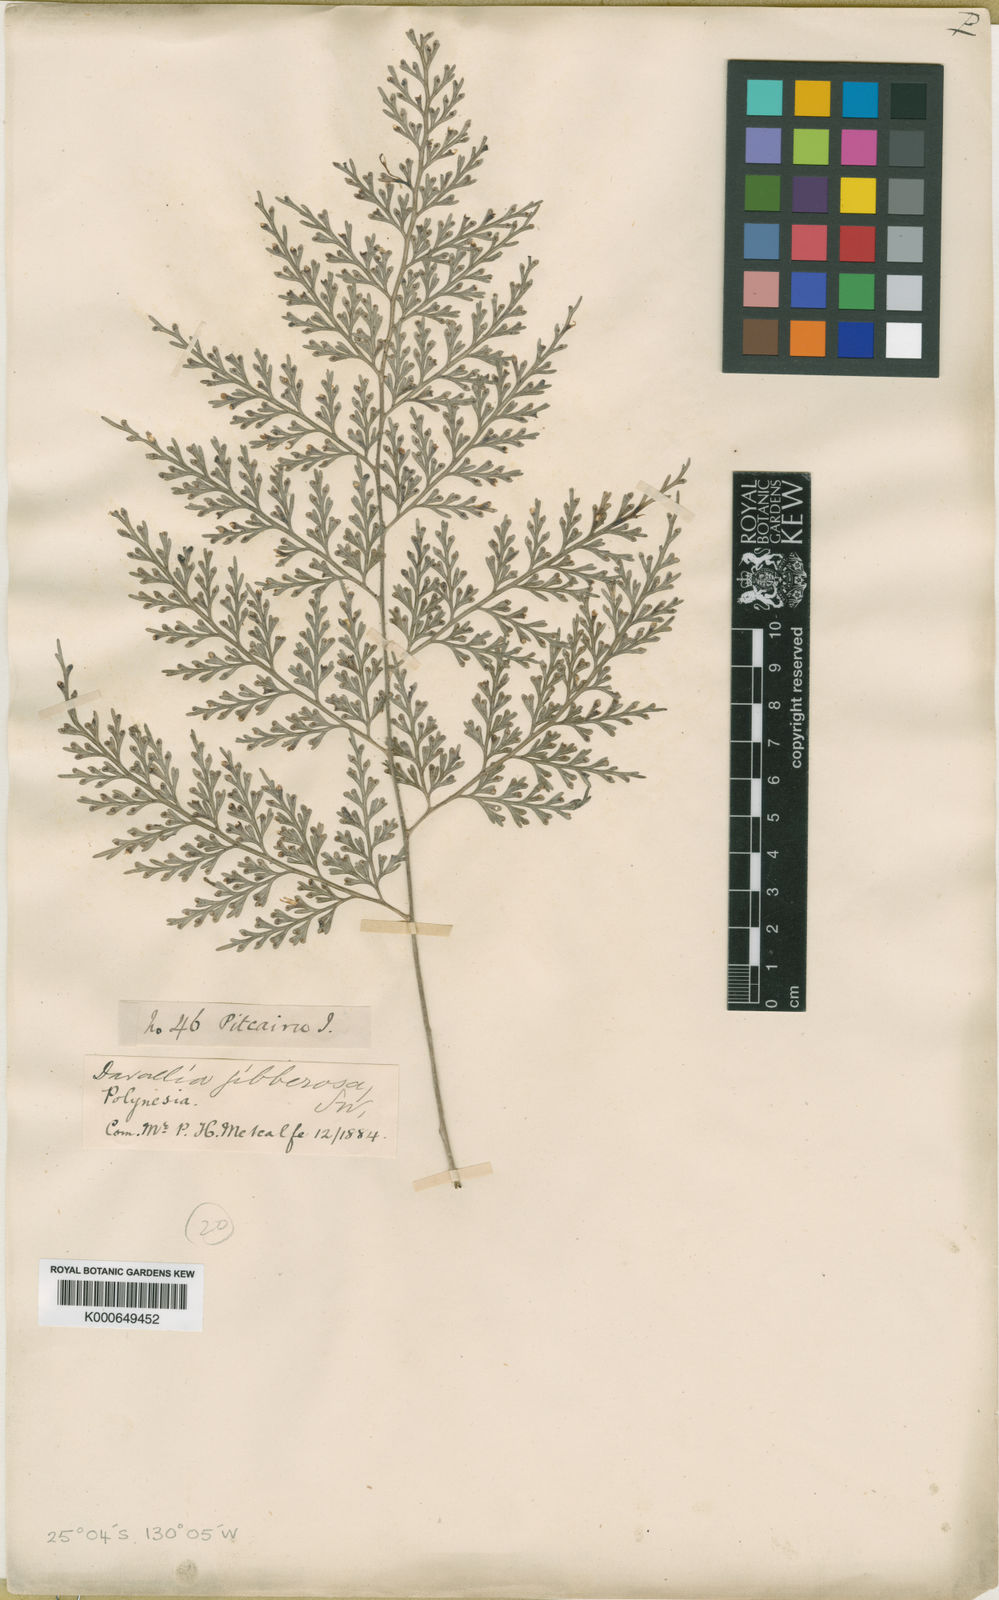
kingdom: Plantae
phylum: Tracheophyta
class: Polypodiopsida
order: Polypodiales
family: Aspleniaceae
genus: Asplenium
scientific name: Asplenium gibberosum
